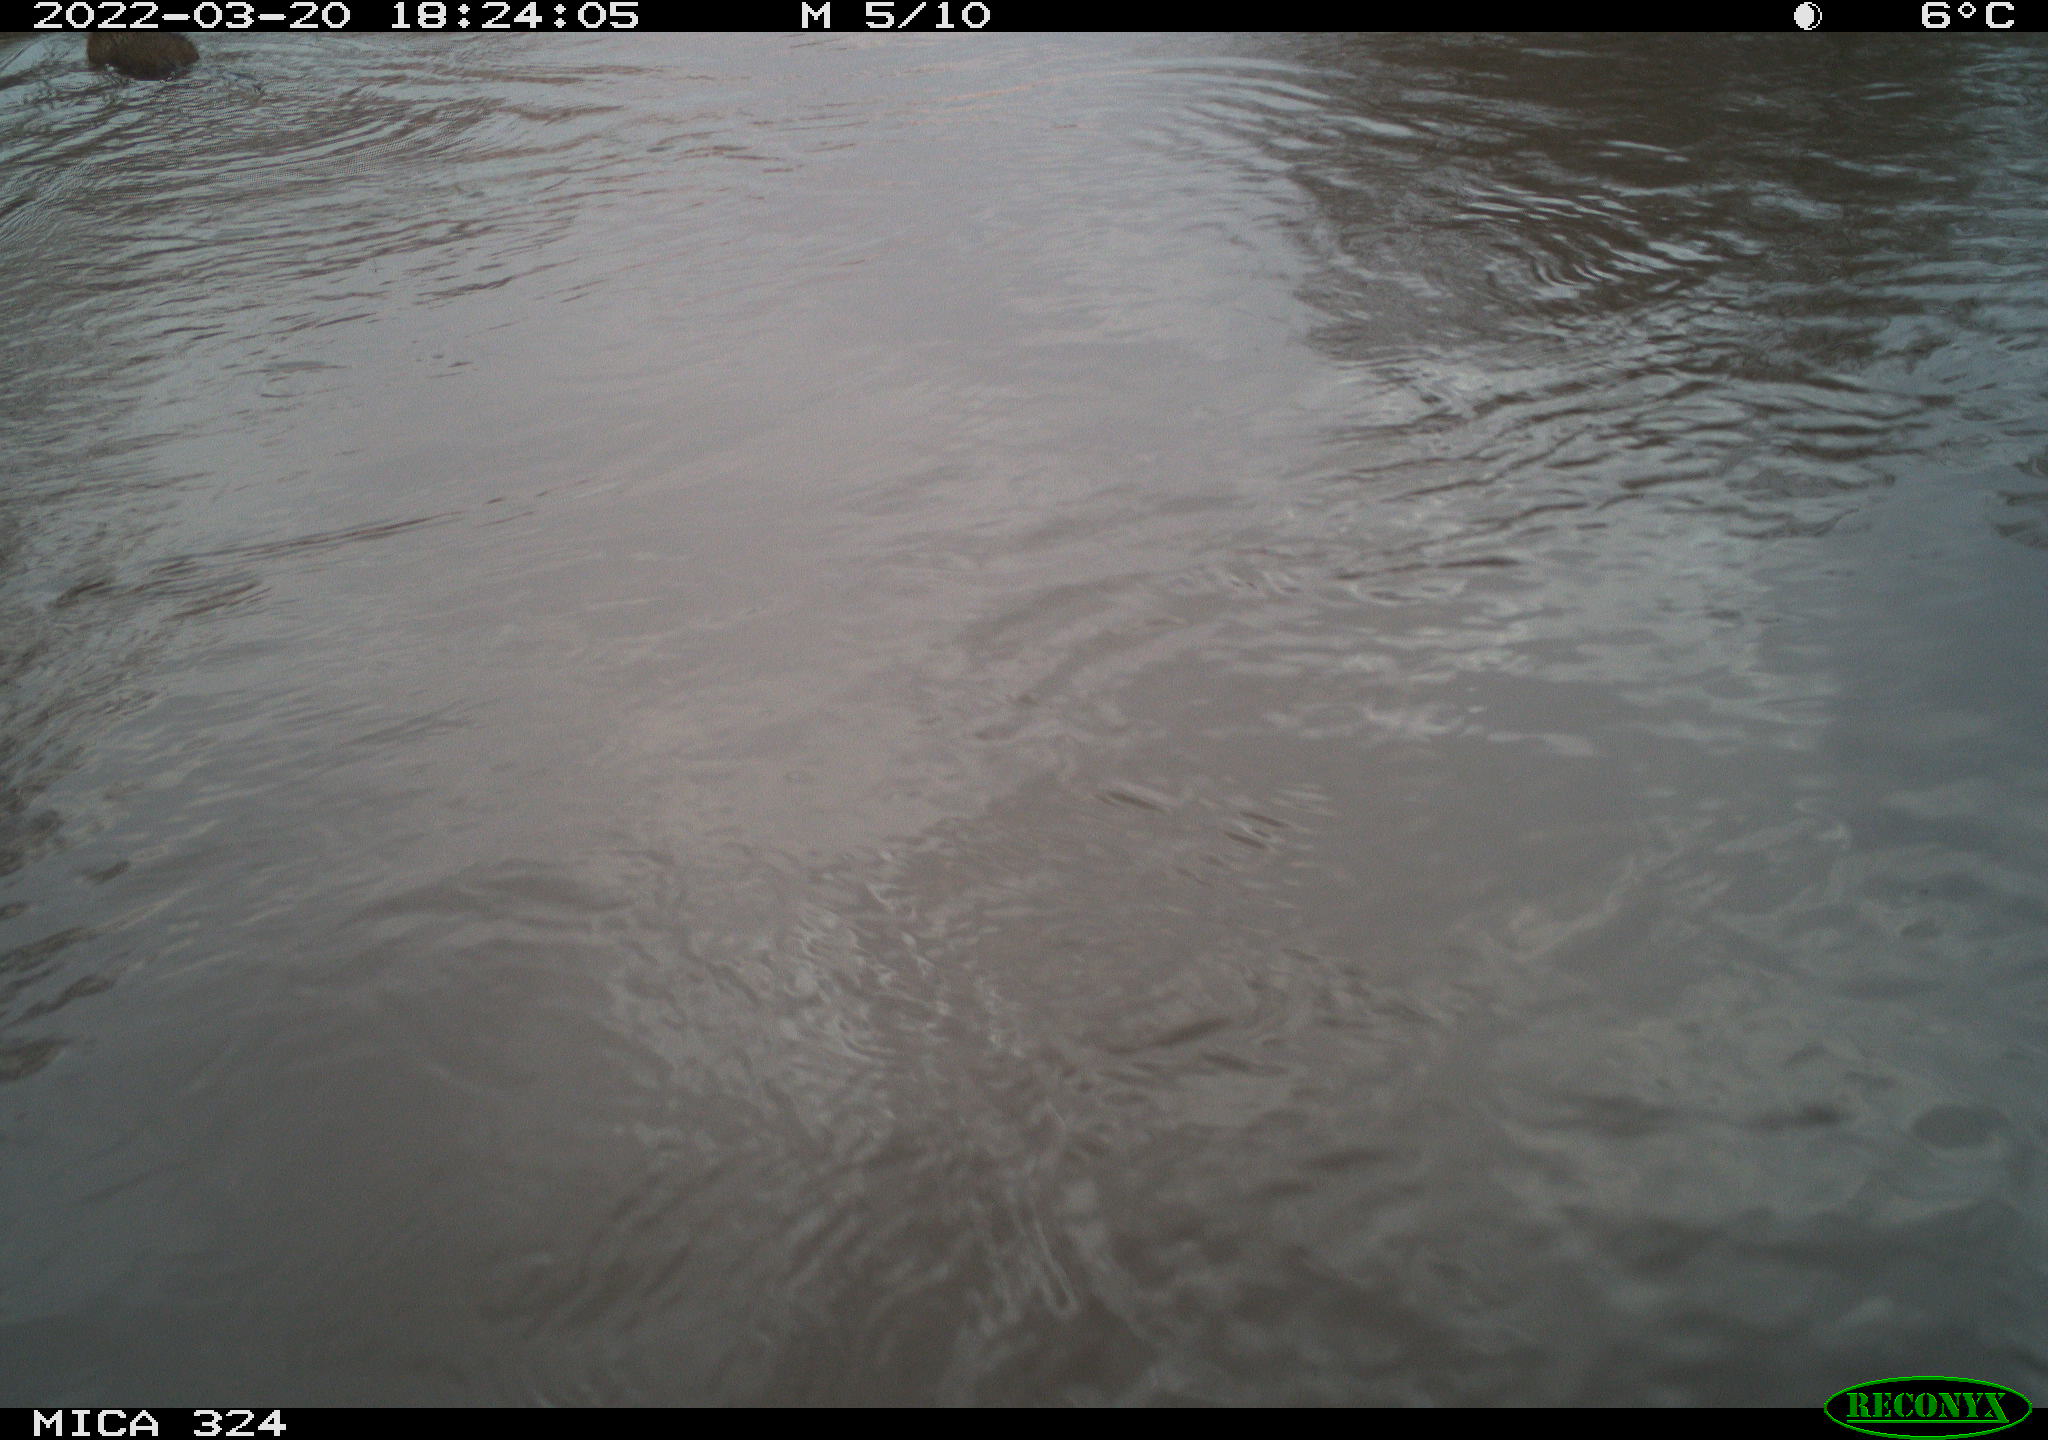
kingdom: Animalia
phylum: Chordata
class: Mammalia
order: Rodentia
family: Cricetidae
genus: Ondatra
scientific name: Ondatra zibethicus
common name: Muskrat
